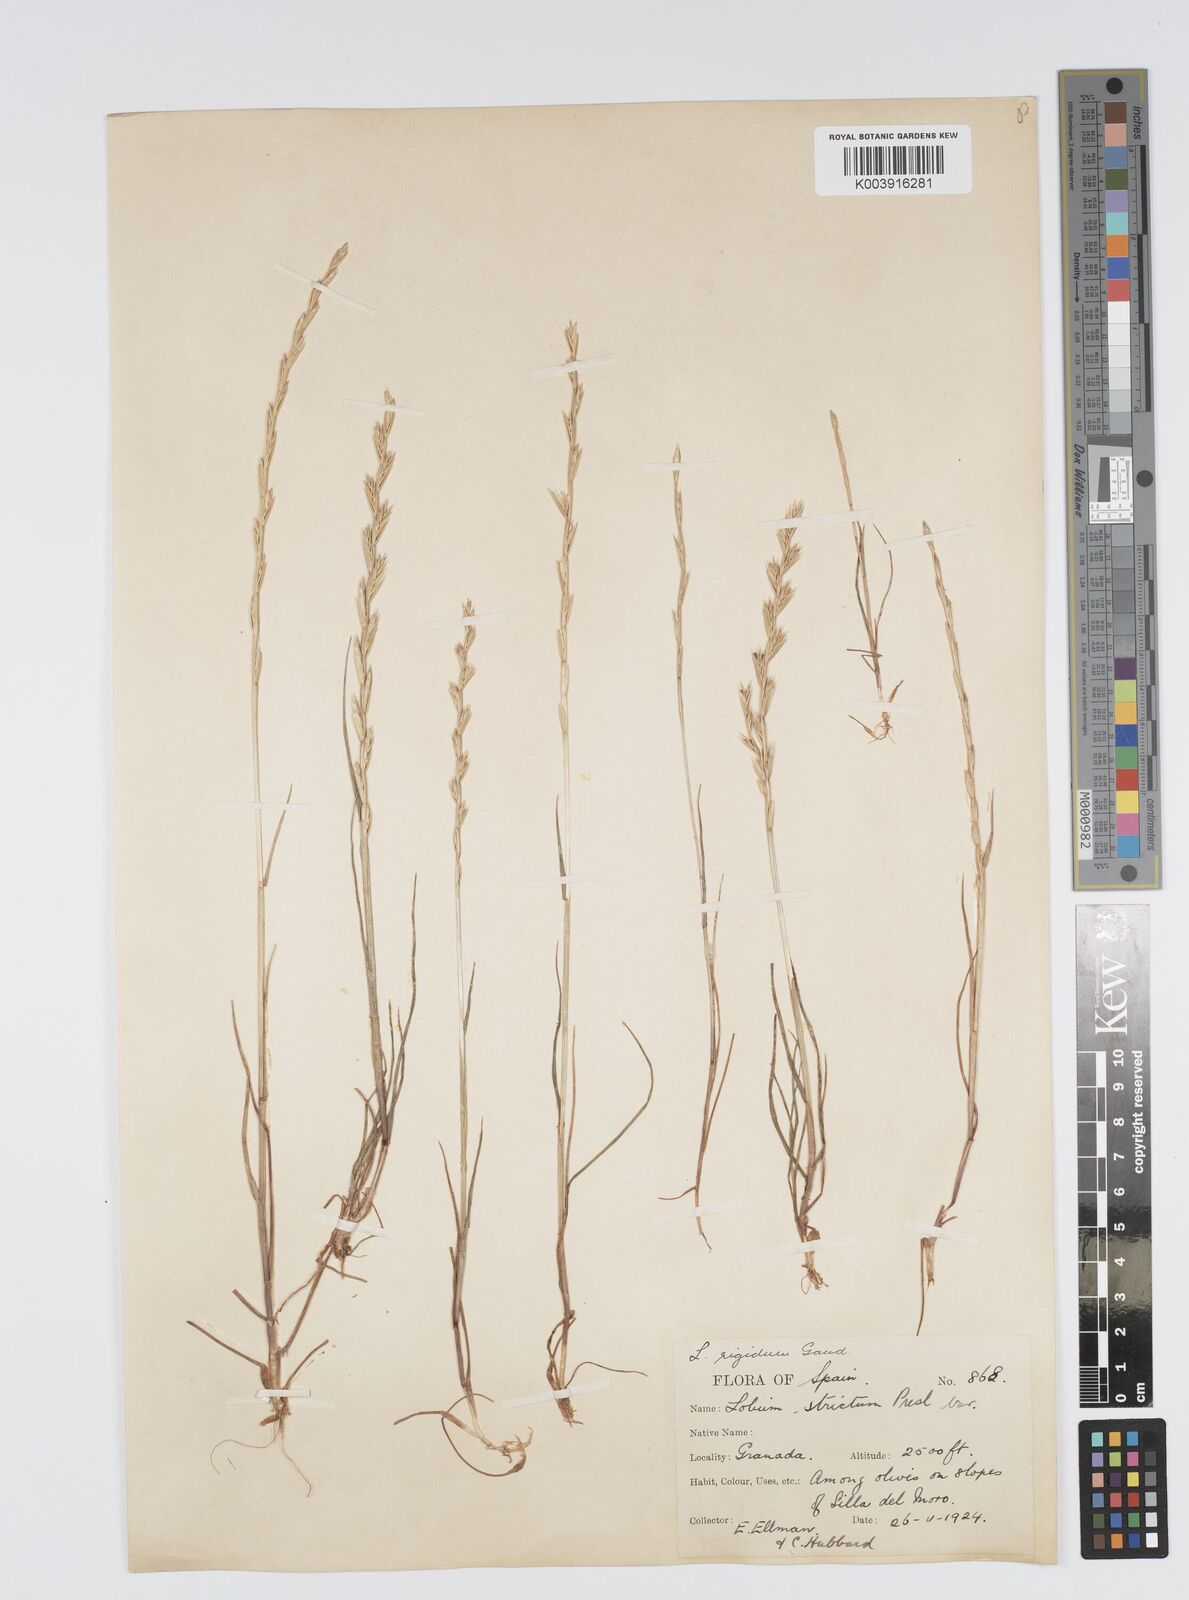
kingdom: Plantae
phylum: Tracheophyta
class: Liliopsida
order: Poales
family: Poaceae
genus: Lolium
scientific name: Lolium rigidum
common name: Wimmera ryegrass
